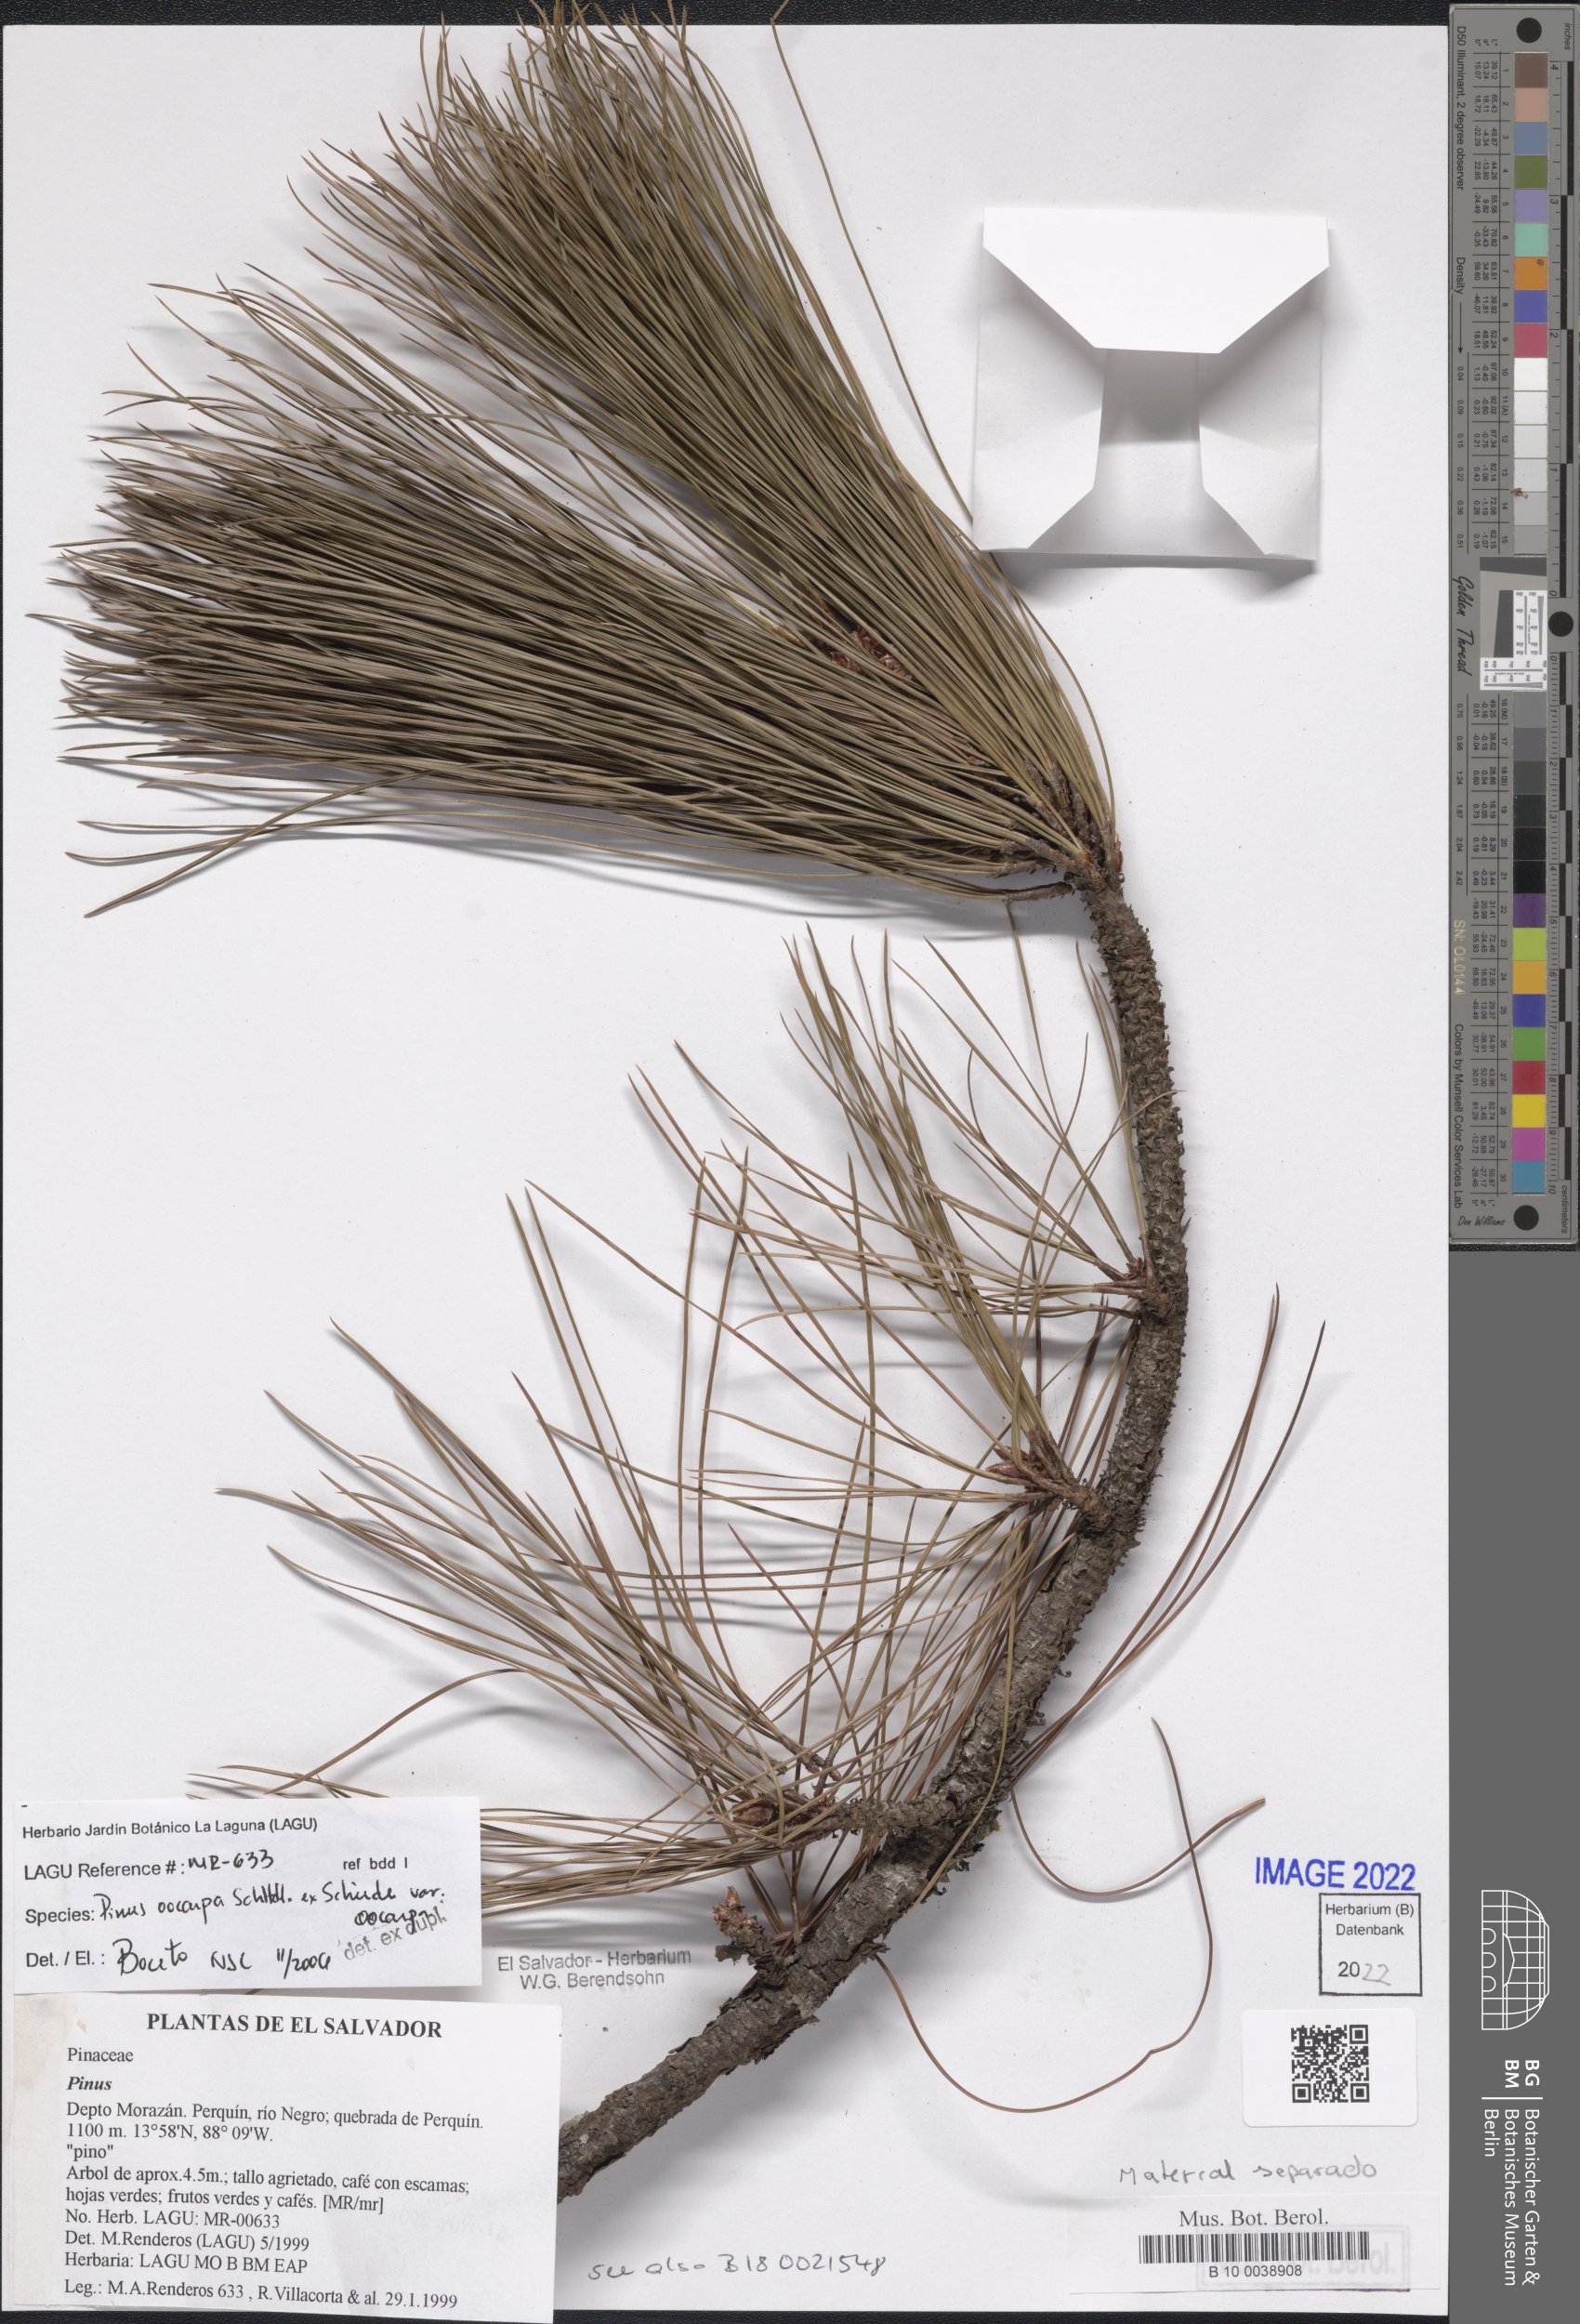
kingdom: Plantae
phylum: Tracheophyta
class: Pinopsida
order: Pinales
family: Pinaceae
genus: Pinus
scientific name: Pinus oocarpa
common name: Egg-cone pine
